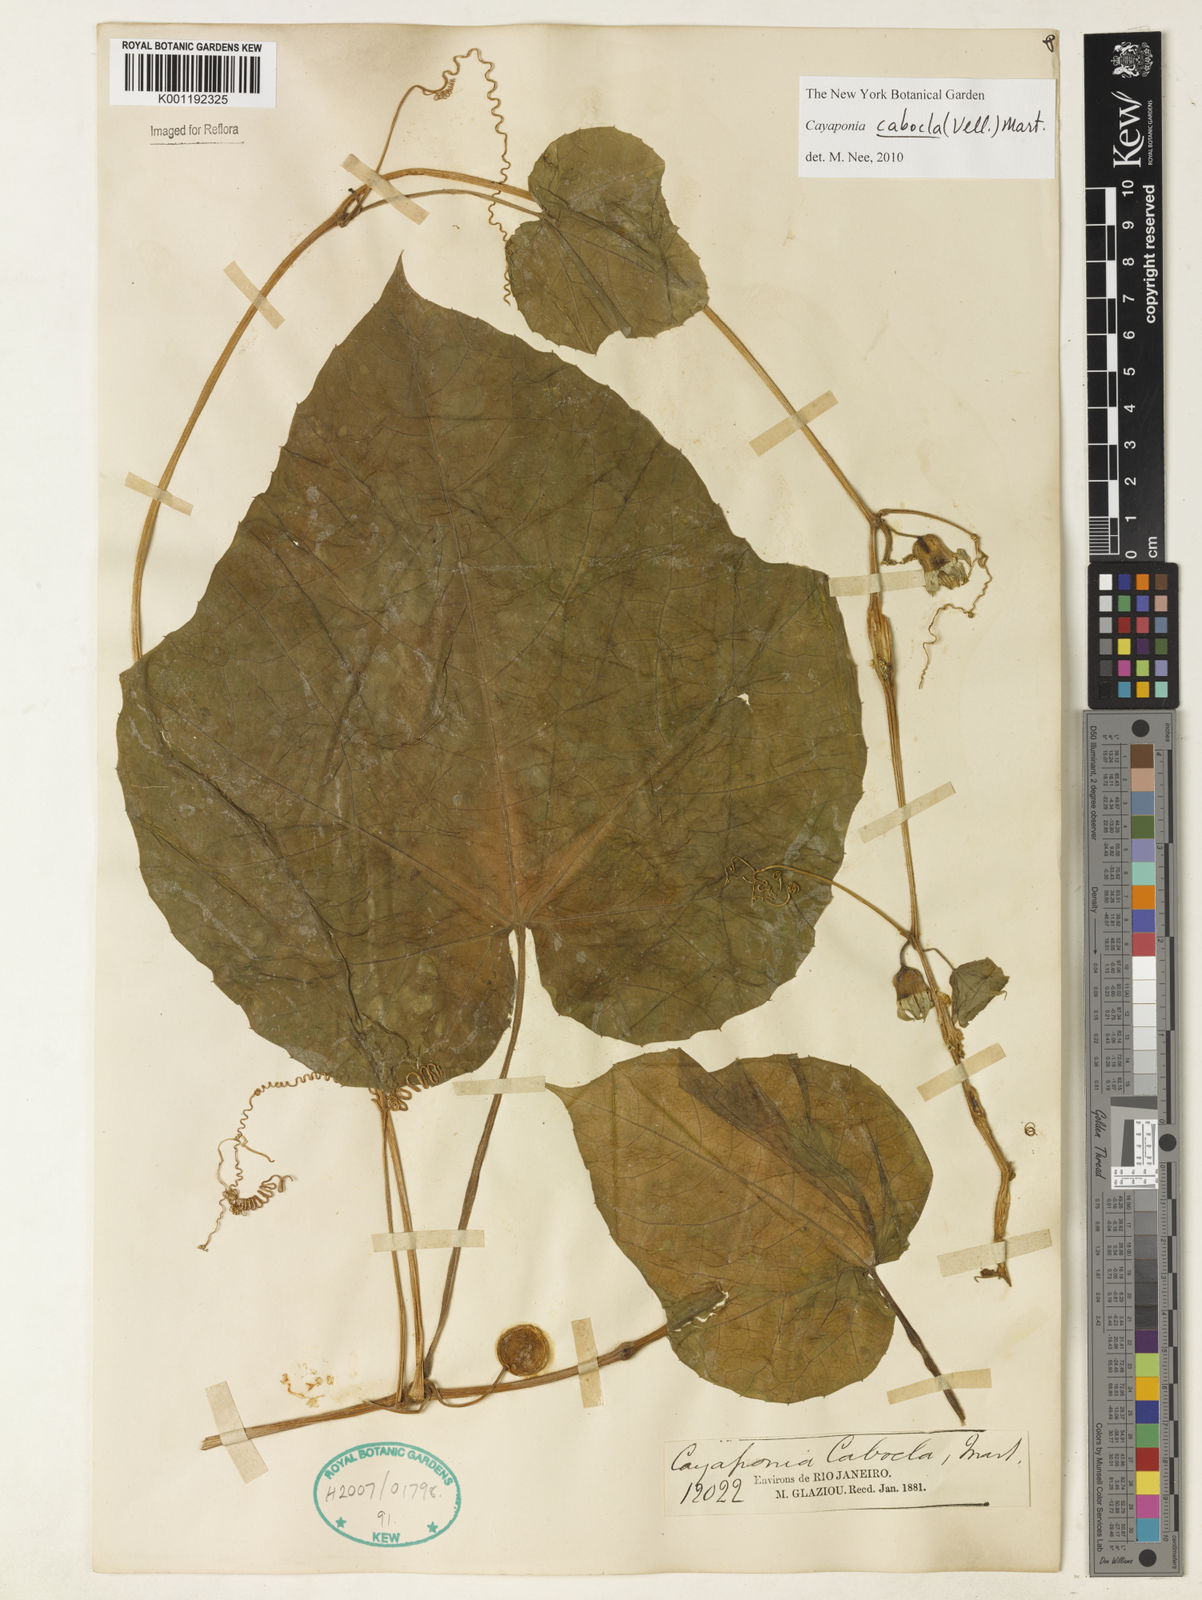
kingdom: Plantae
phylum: Tracheophyta
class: Magnoliopsida
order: Cucurbitales
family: Cucurbitaceae
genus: Cayaponia
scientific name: Cayaponia cabocla
